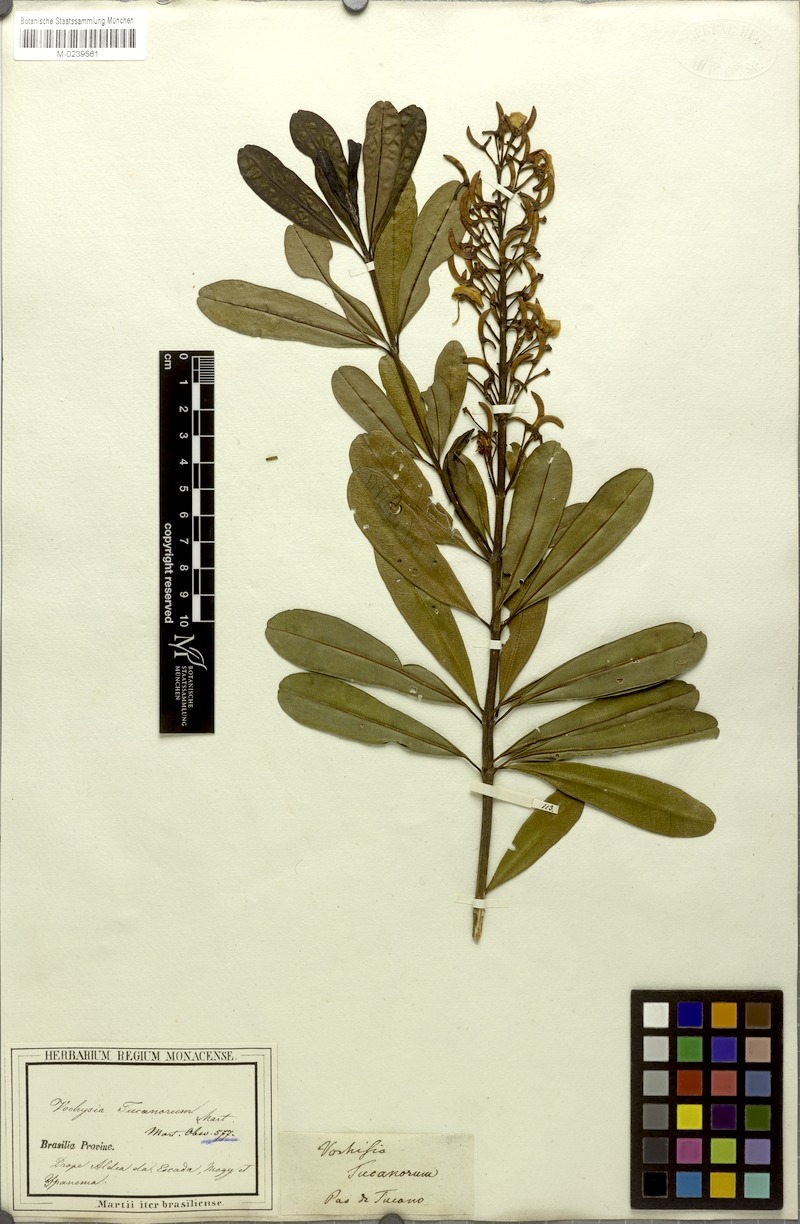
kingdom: Plantae
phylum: Tracheophyta
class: Magnoliopsida
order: Myrtales
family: Vochysiaceae
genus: Vochysia
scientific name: Vochysia tucanorum
